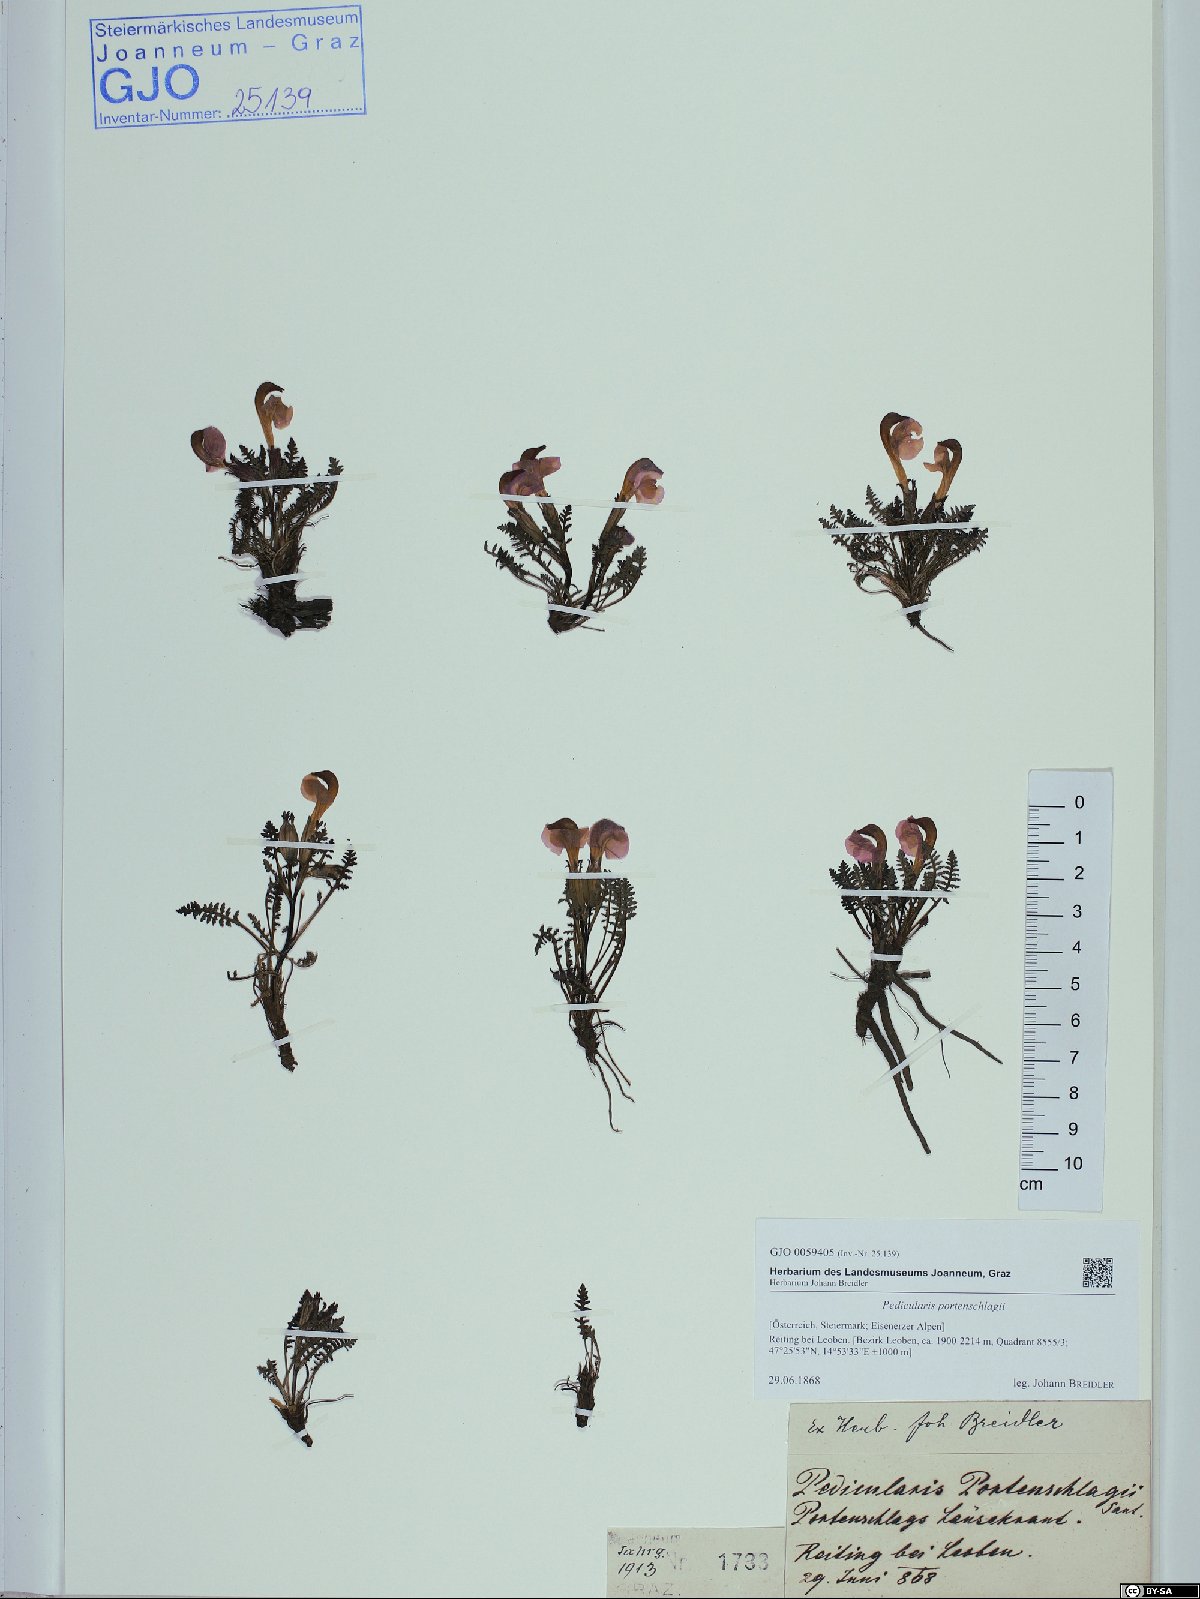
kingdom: Plantae
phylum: Tracheophyta
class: Magnoliopsida
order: Lamiales
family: Orobanchaceae
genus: Pedicularis
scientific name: Pedicularis portenschlagii
